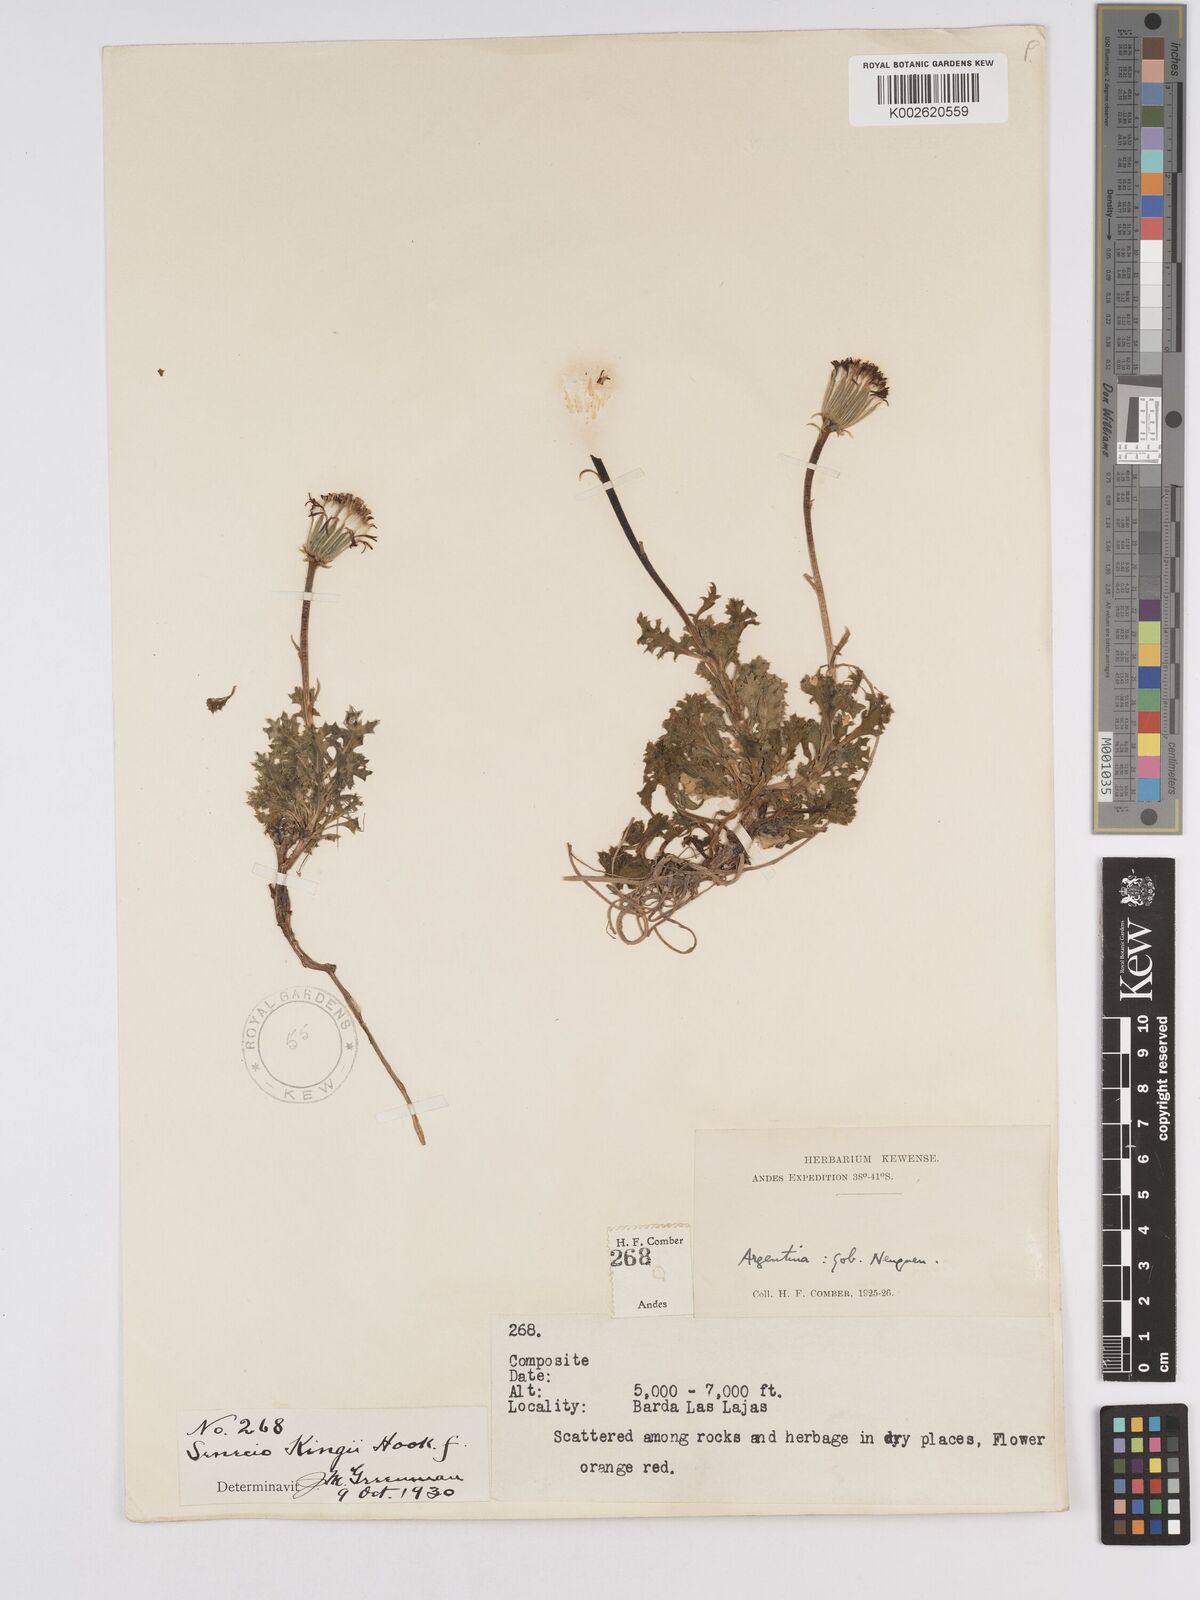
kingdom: Plantae
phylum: Tracheophyta
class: Magnoliopsida
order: Asterales
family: Asteraceae
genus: Senecio
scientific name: Senecio kingii
